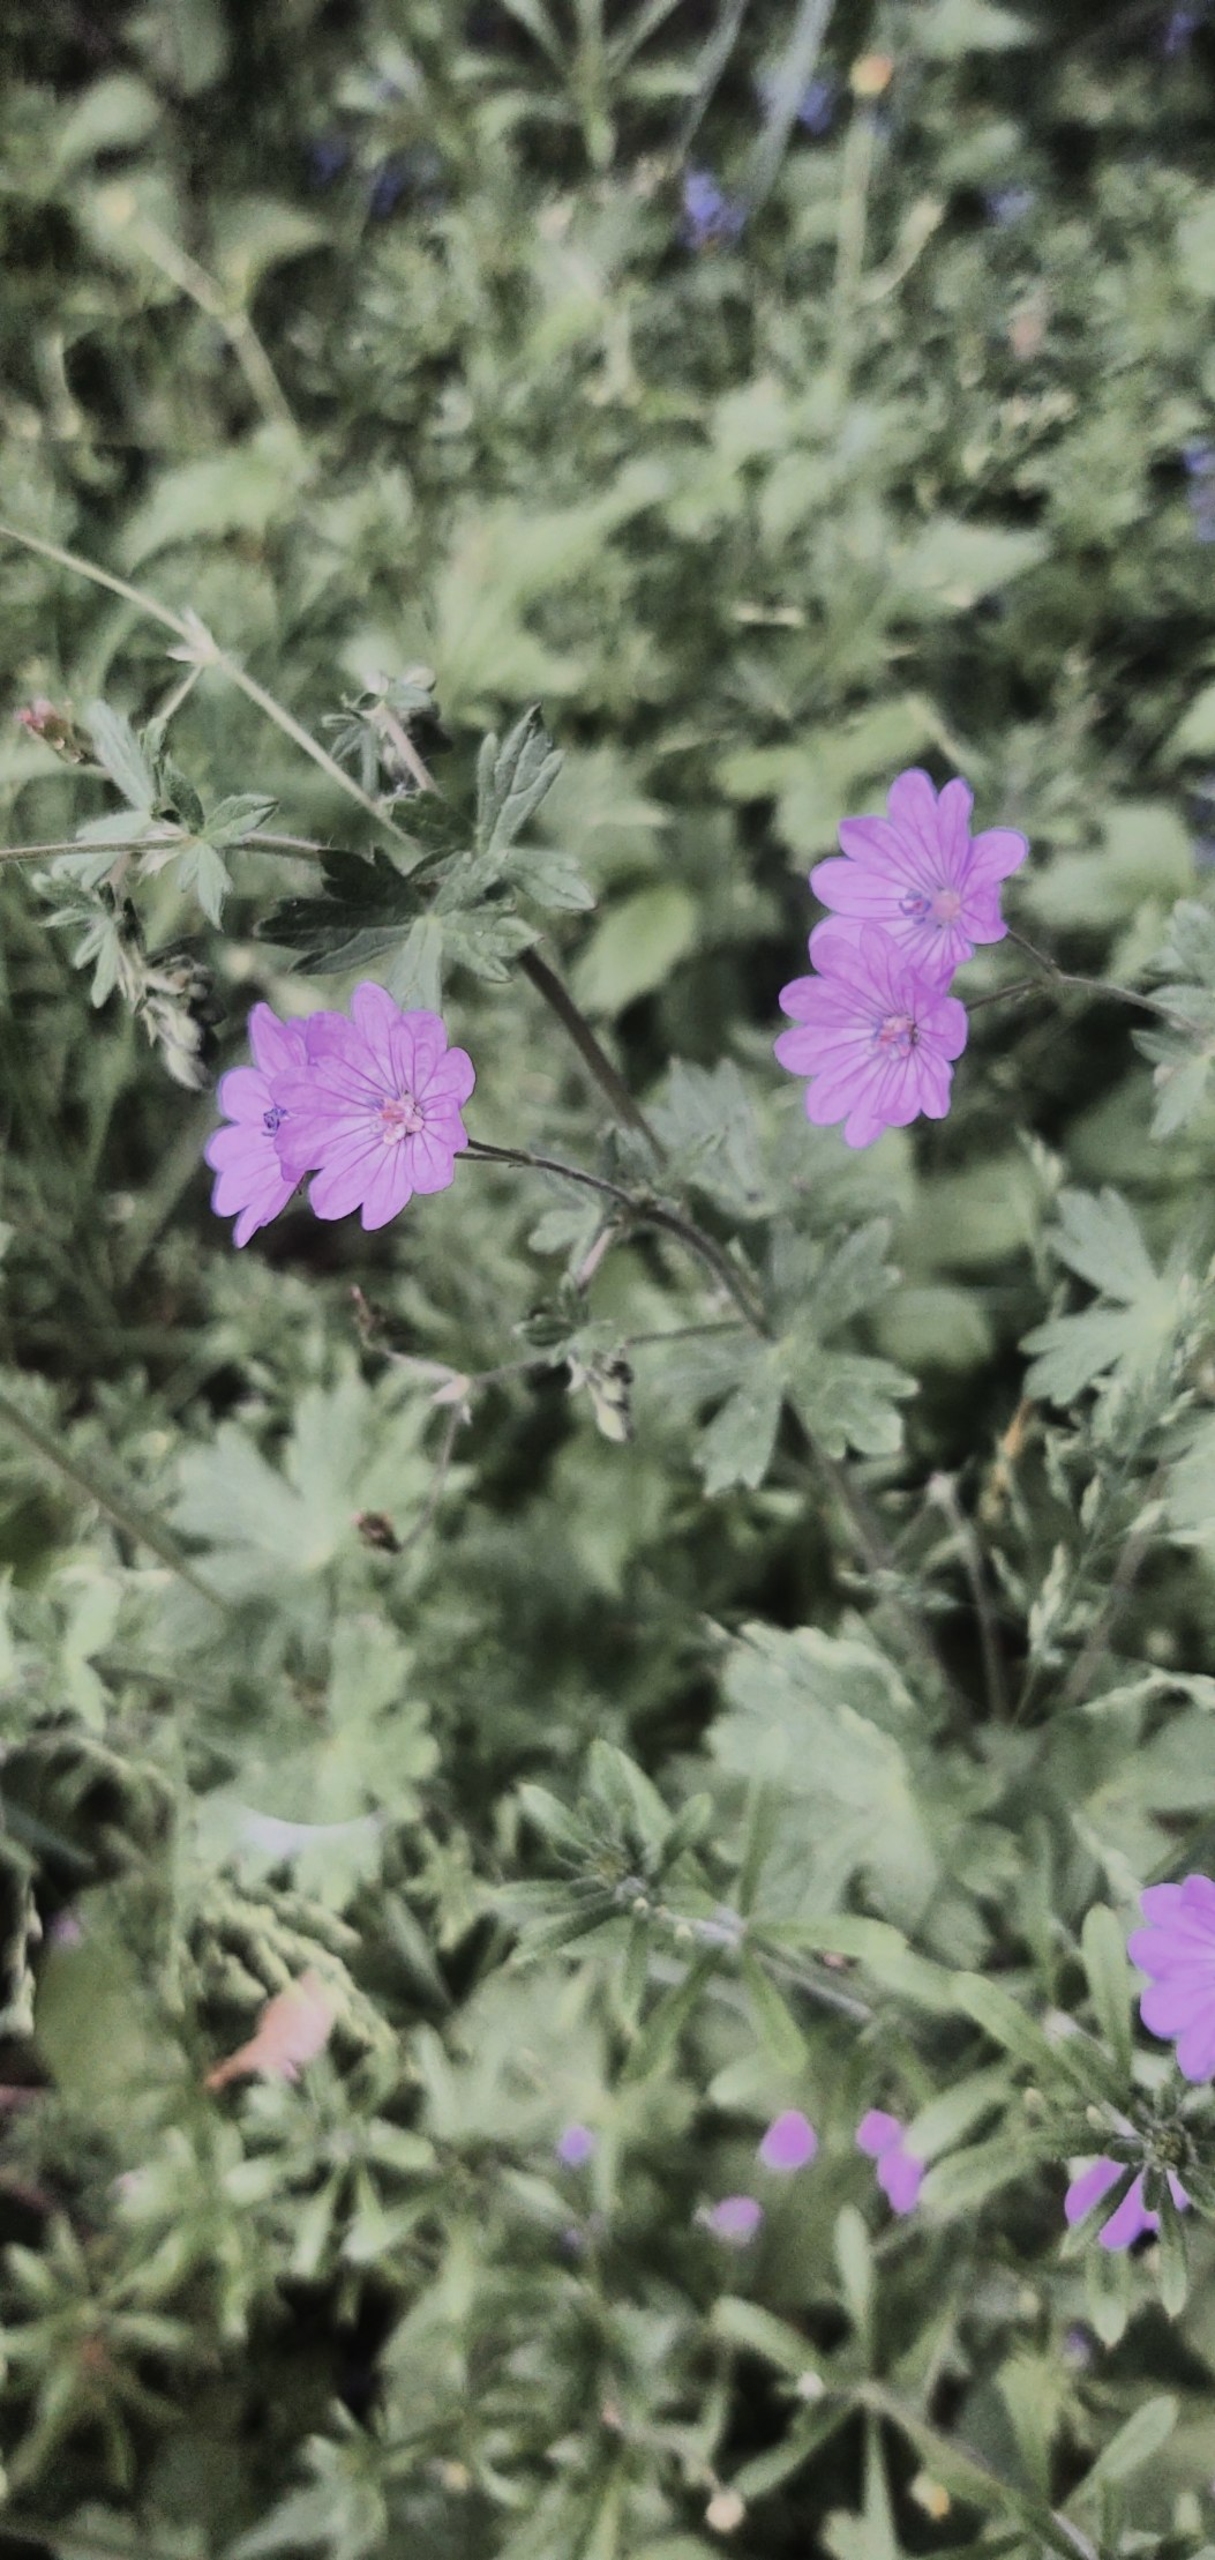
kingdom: Plantae
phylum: Tracheophyta
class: Magnoliopsida
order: Geraniales
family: Geraniaceae
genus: Geranium
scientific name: Geranium pyrenaicum
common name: Pyrenæisk storkenæb
